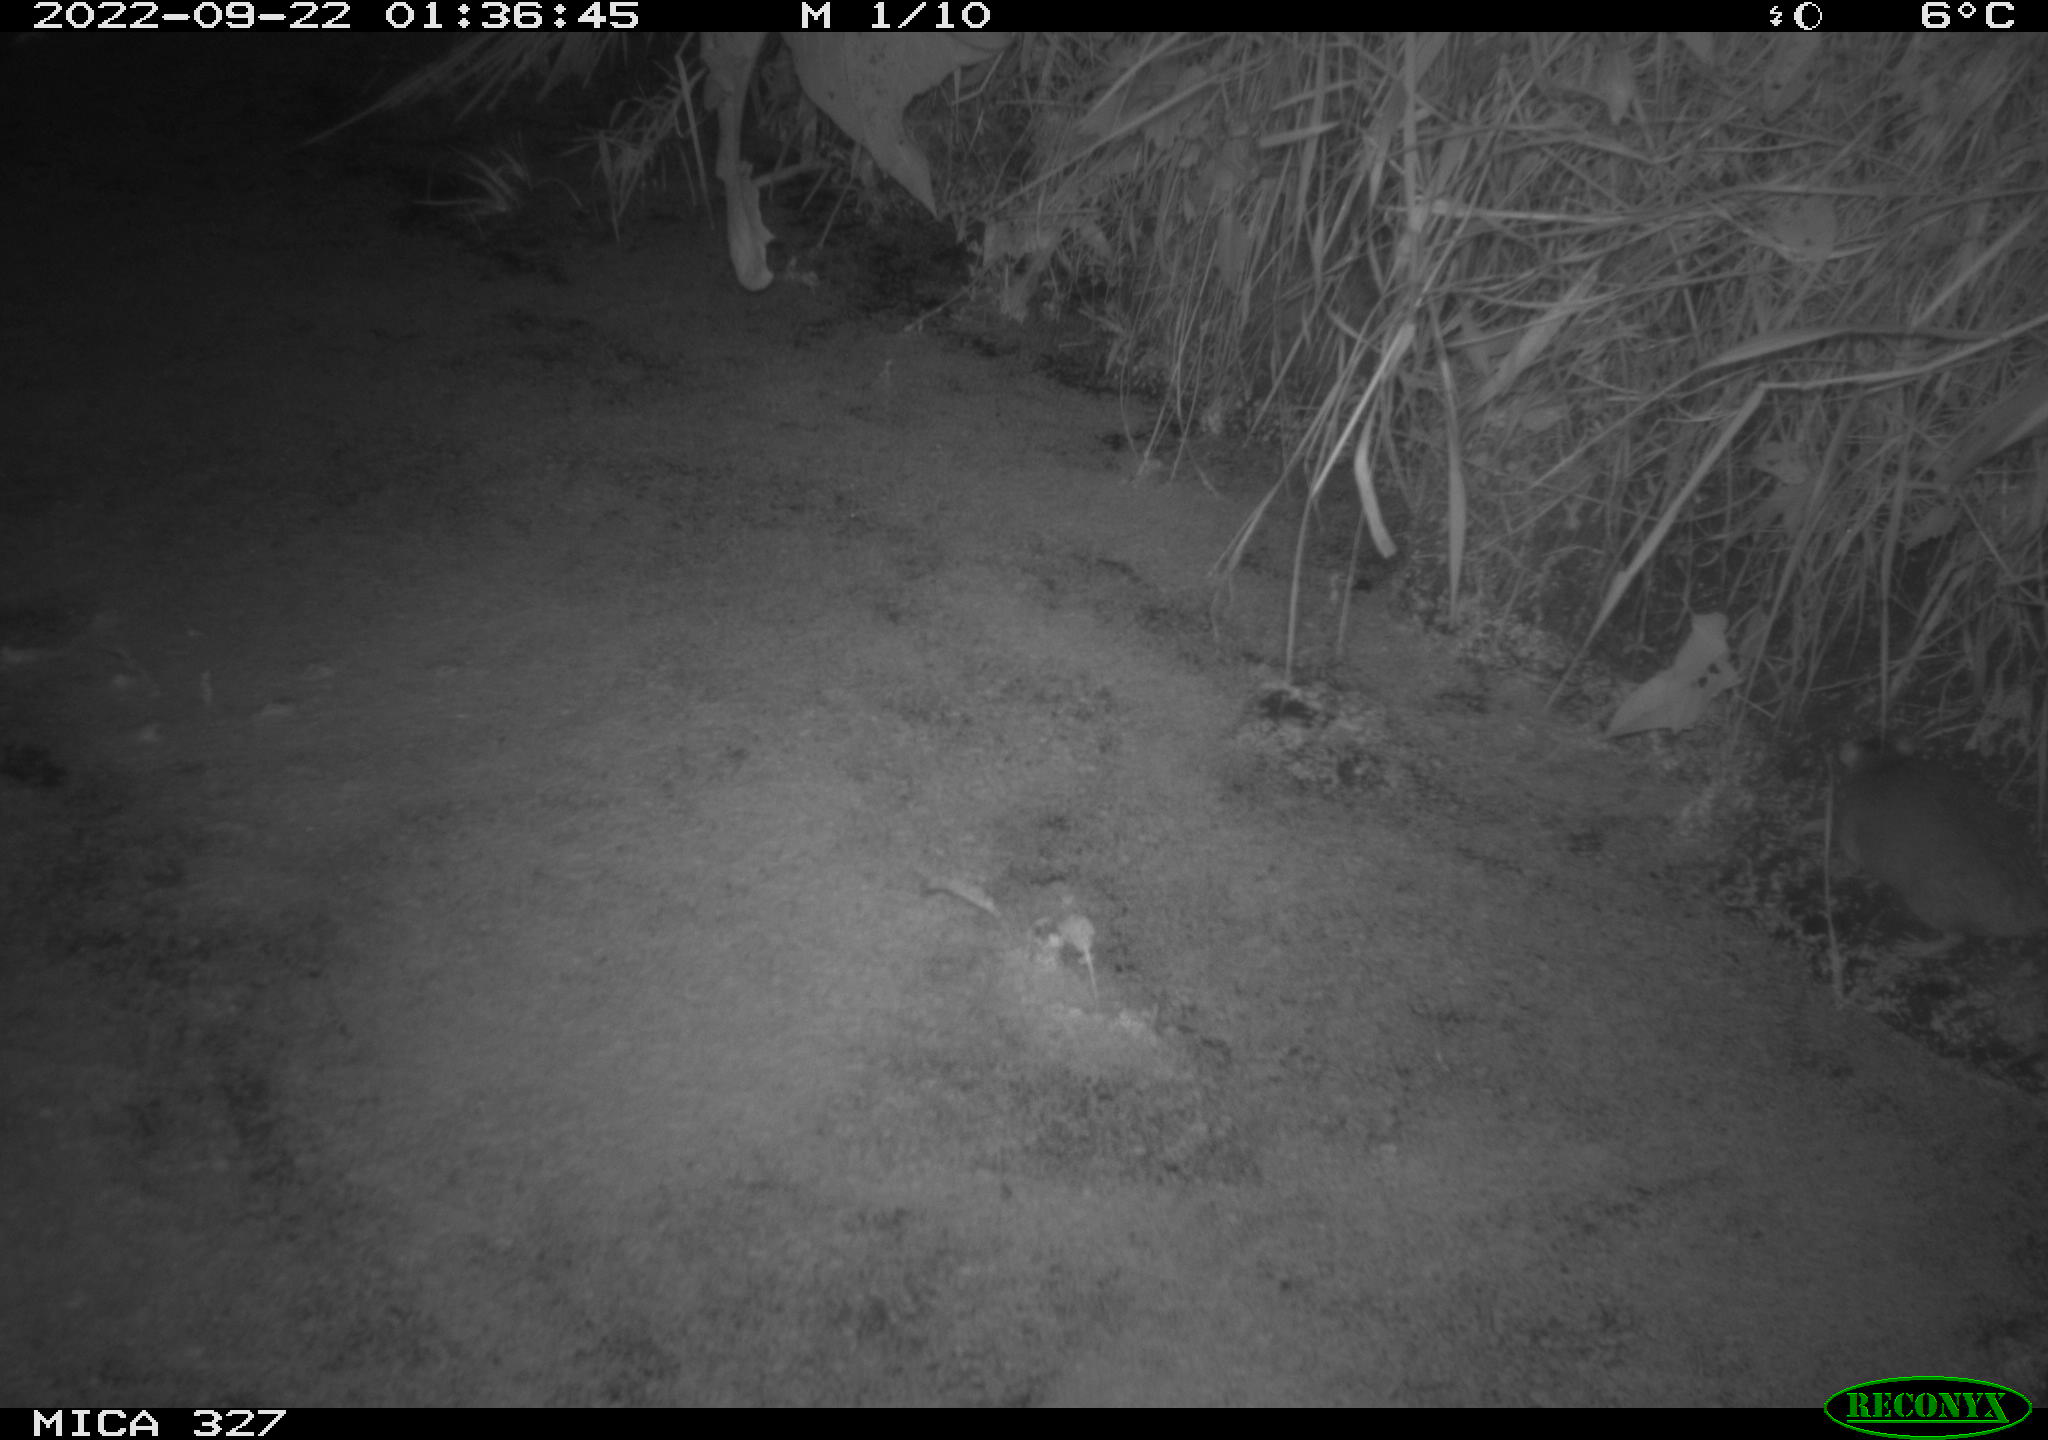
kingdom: Animalia
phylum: Chordata
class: Mammalia
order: Rodentia
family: Muridae
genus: Rattus
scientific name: Rattus norvegicus
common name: Brown rat
